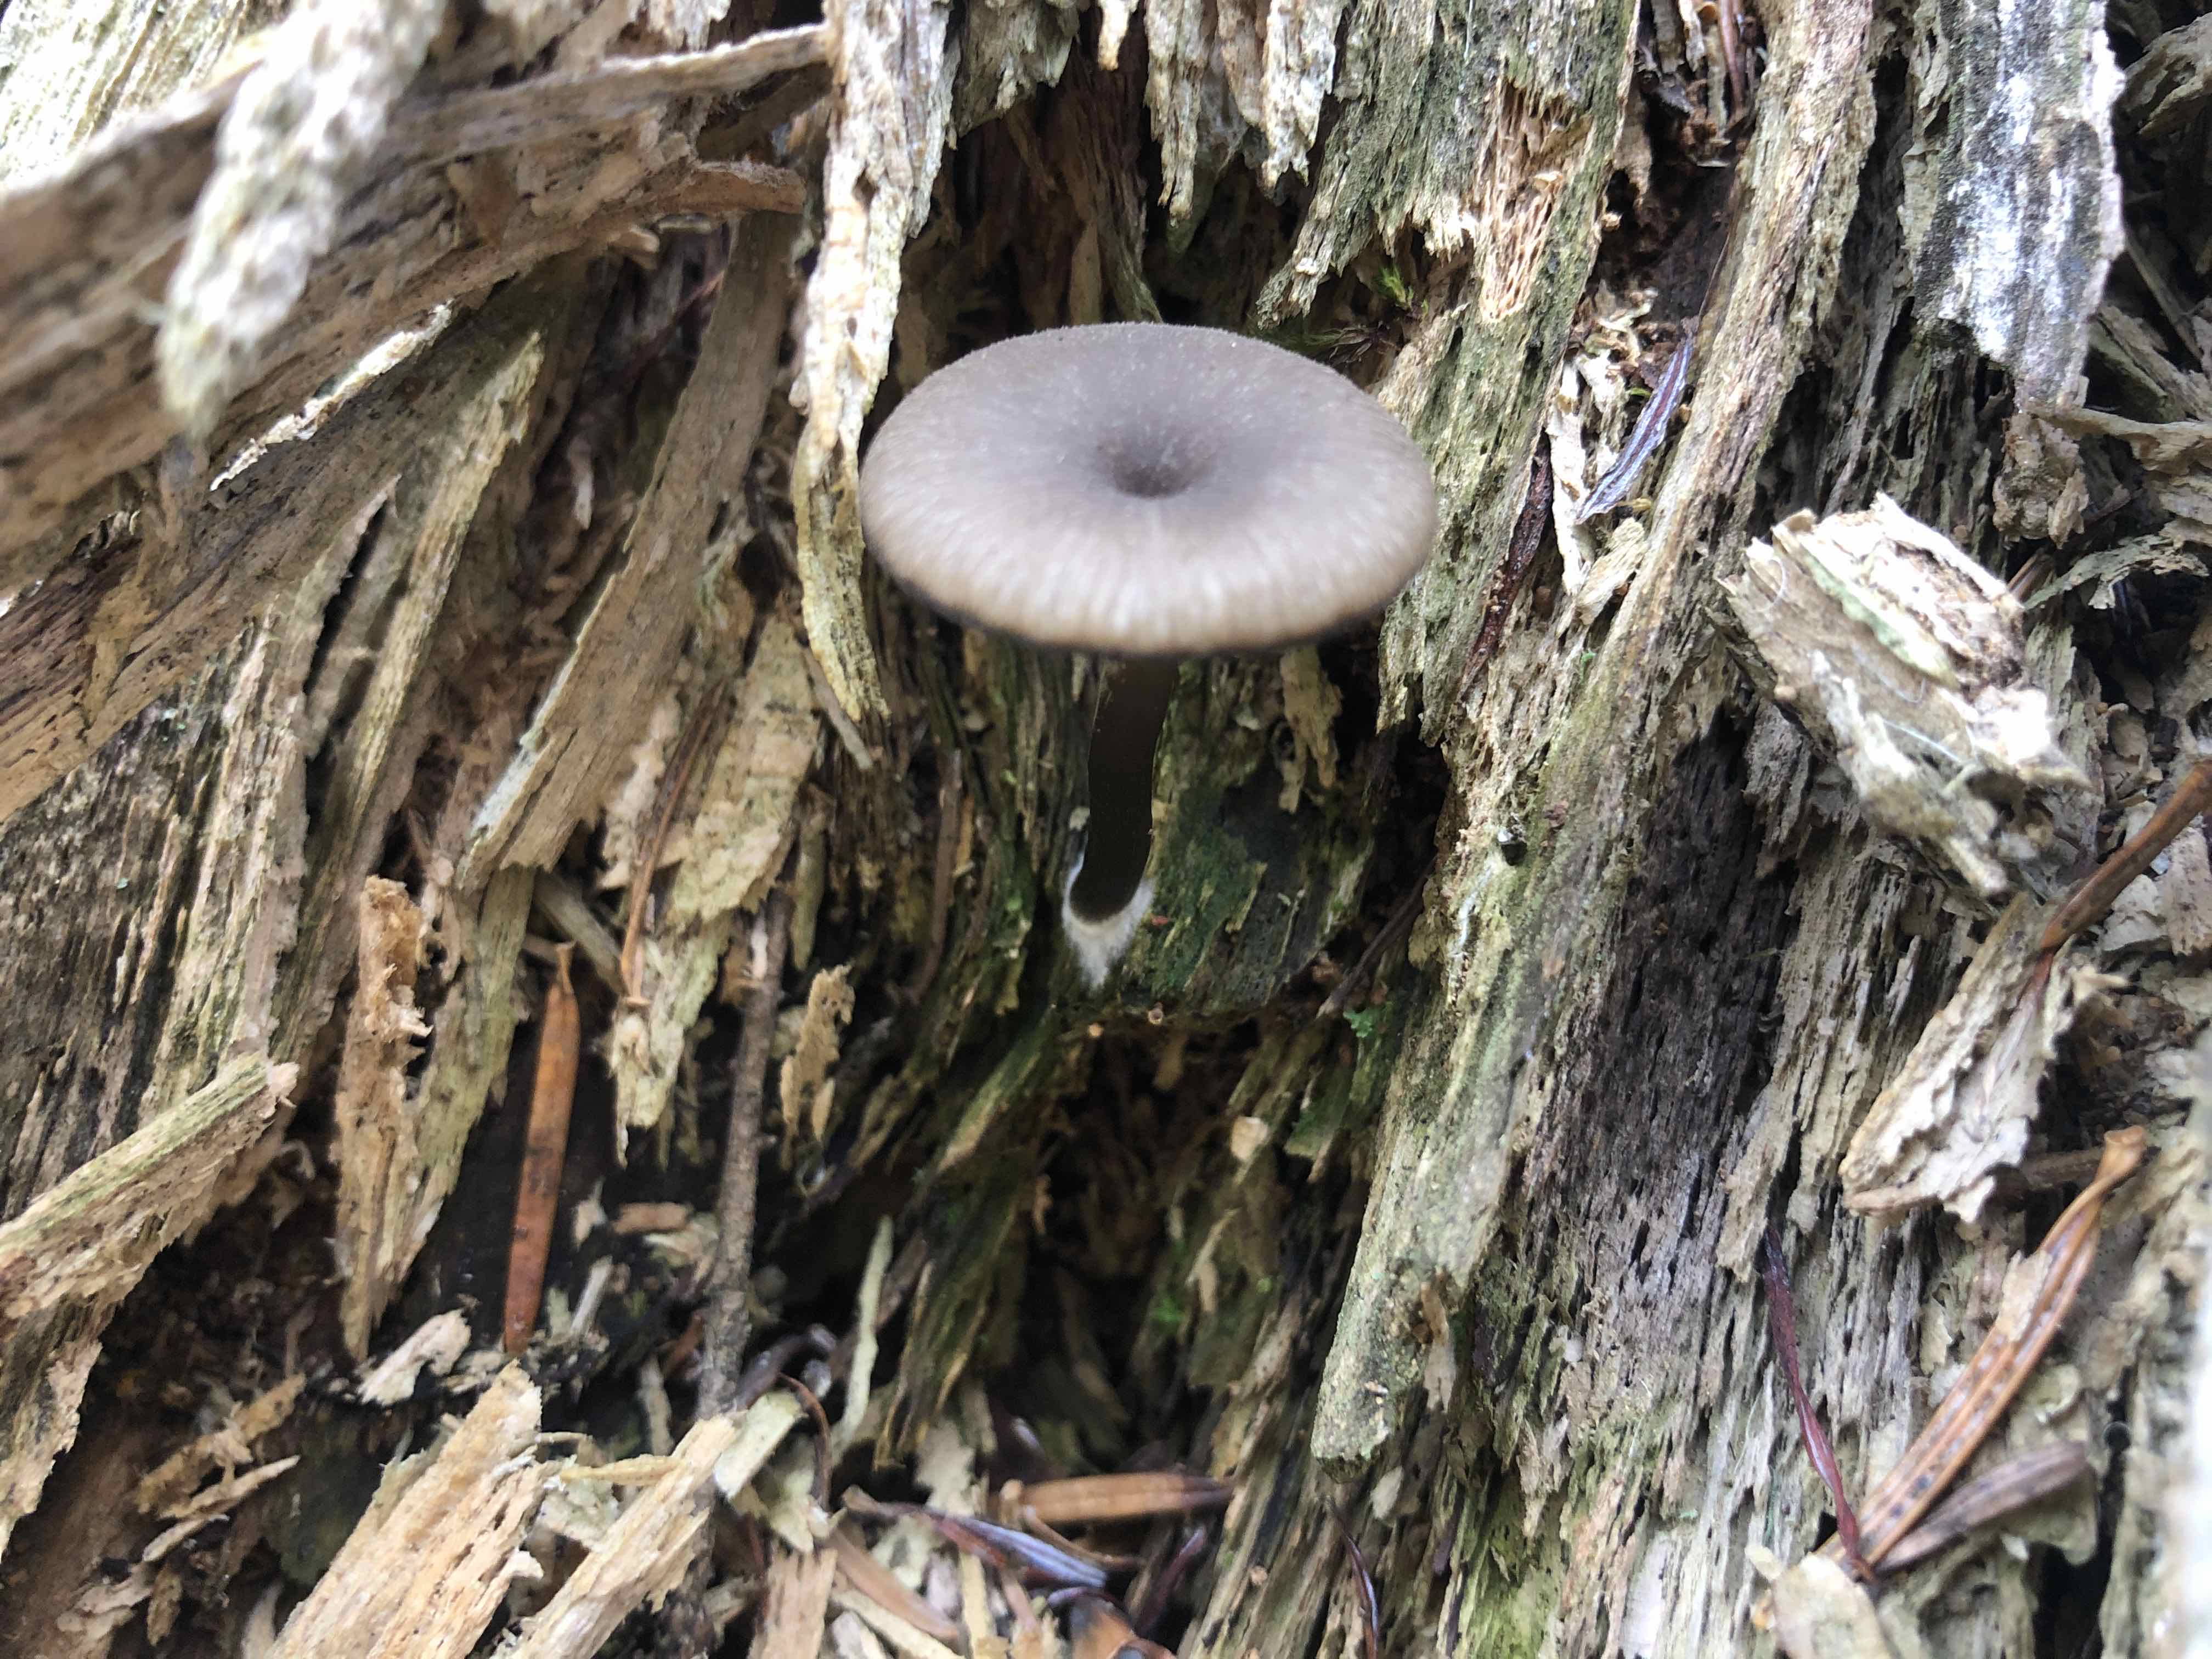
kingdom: Fungi
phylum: Basidiomycota
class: Agaricomycetes
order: Agaricales
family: Hygrophoraceae
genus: Arrhenia
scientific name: Arrhenia epichysium
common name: ved-fontænehat
